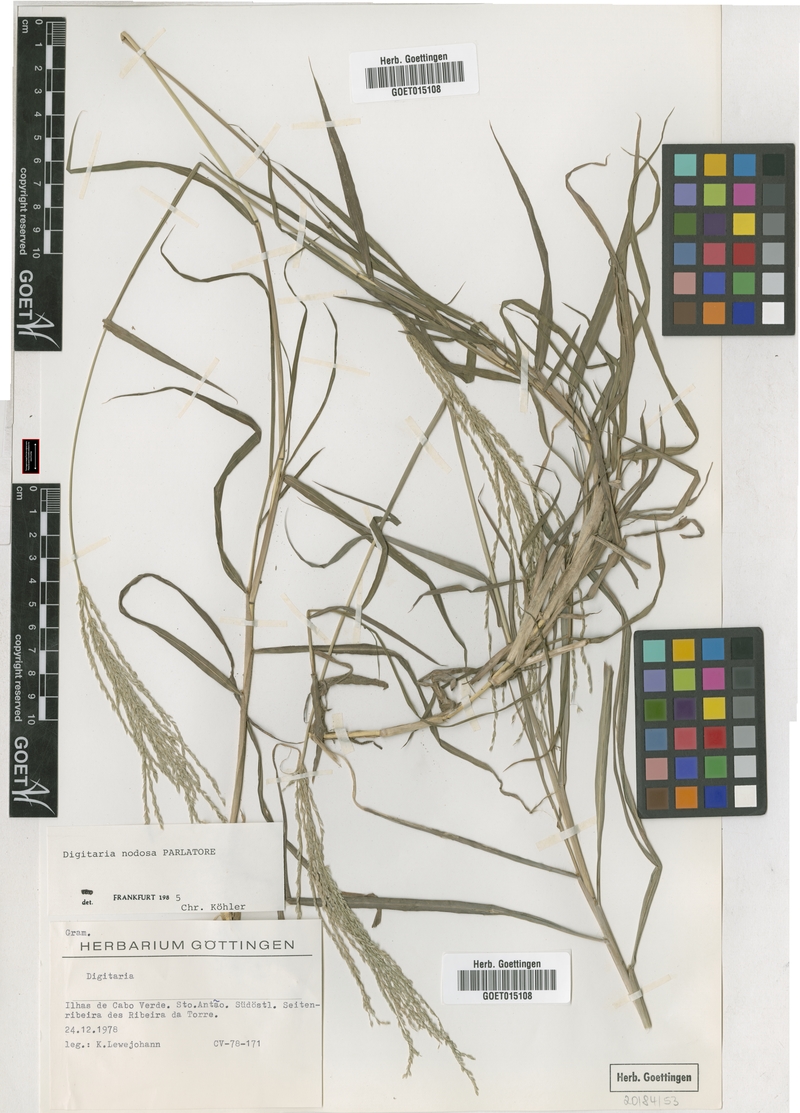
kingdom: Plantae
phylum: Tracheophyta
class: Liliopsida
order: Poales
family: Poaceae
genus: Digitaria
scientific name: Digitaria nodosa
